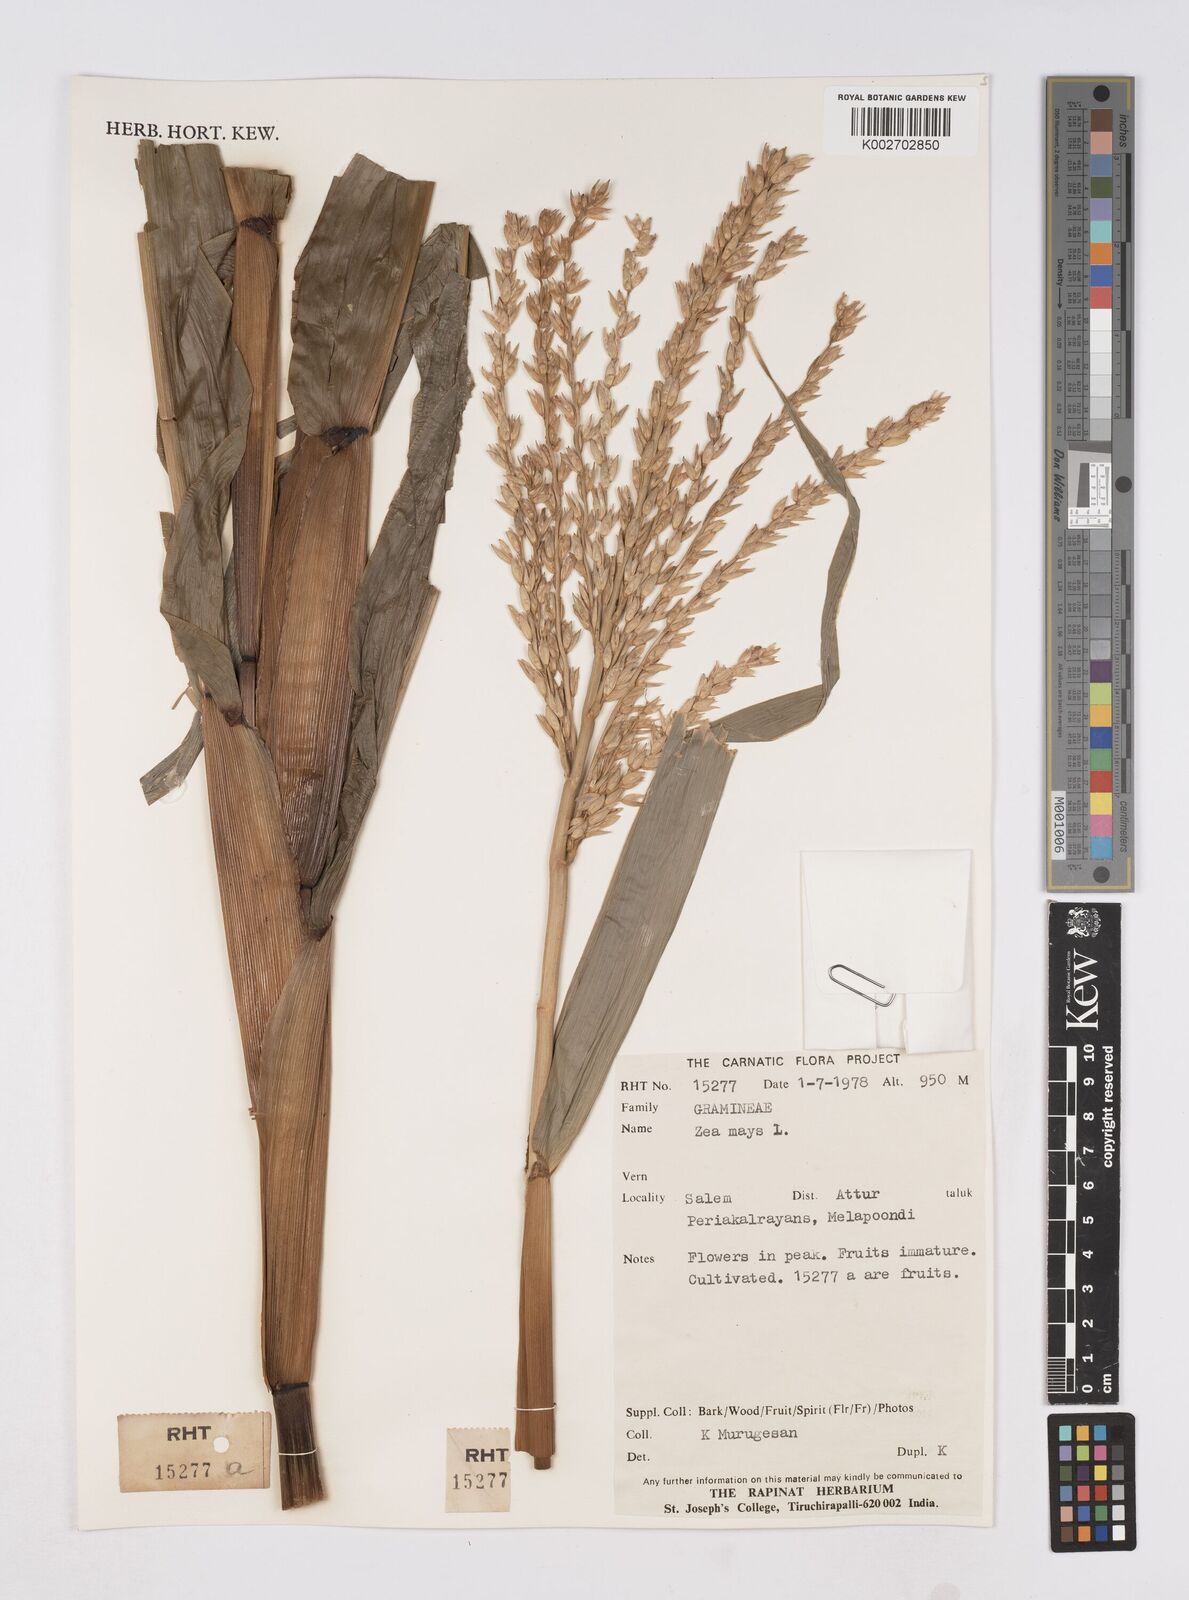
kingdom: Plantae
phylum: Tracheophyta
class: Liliopsida
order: Poales
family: Poaceae
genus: Zea
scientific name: Zea mays
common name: Maize
